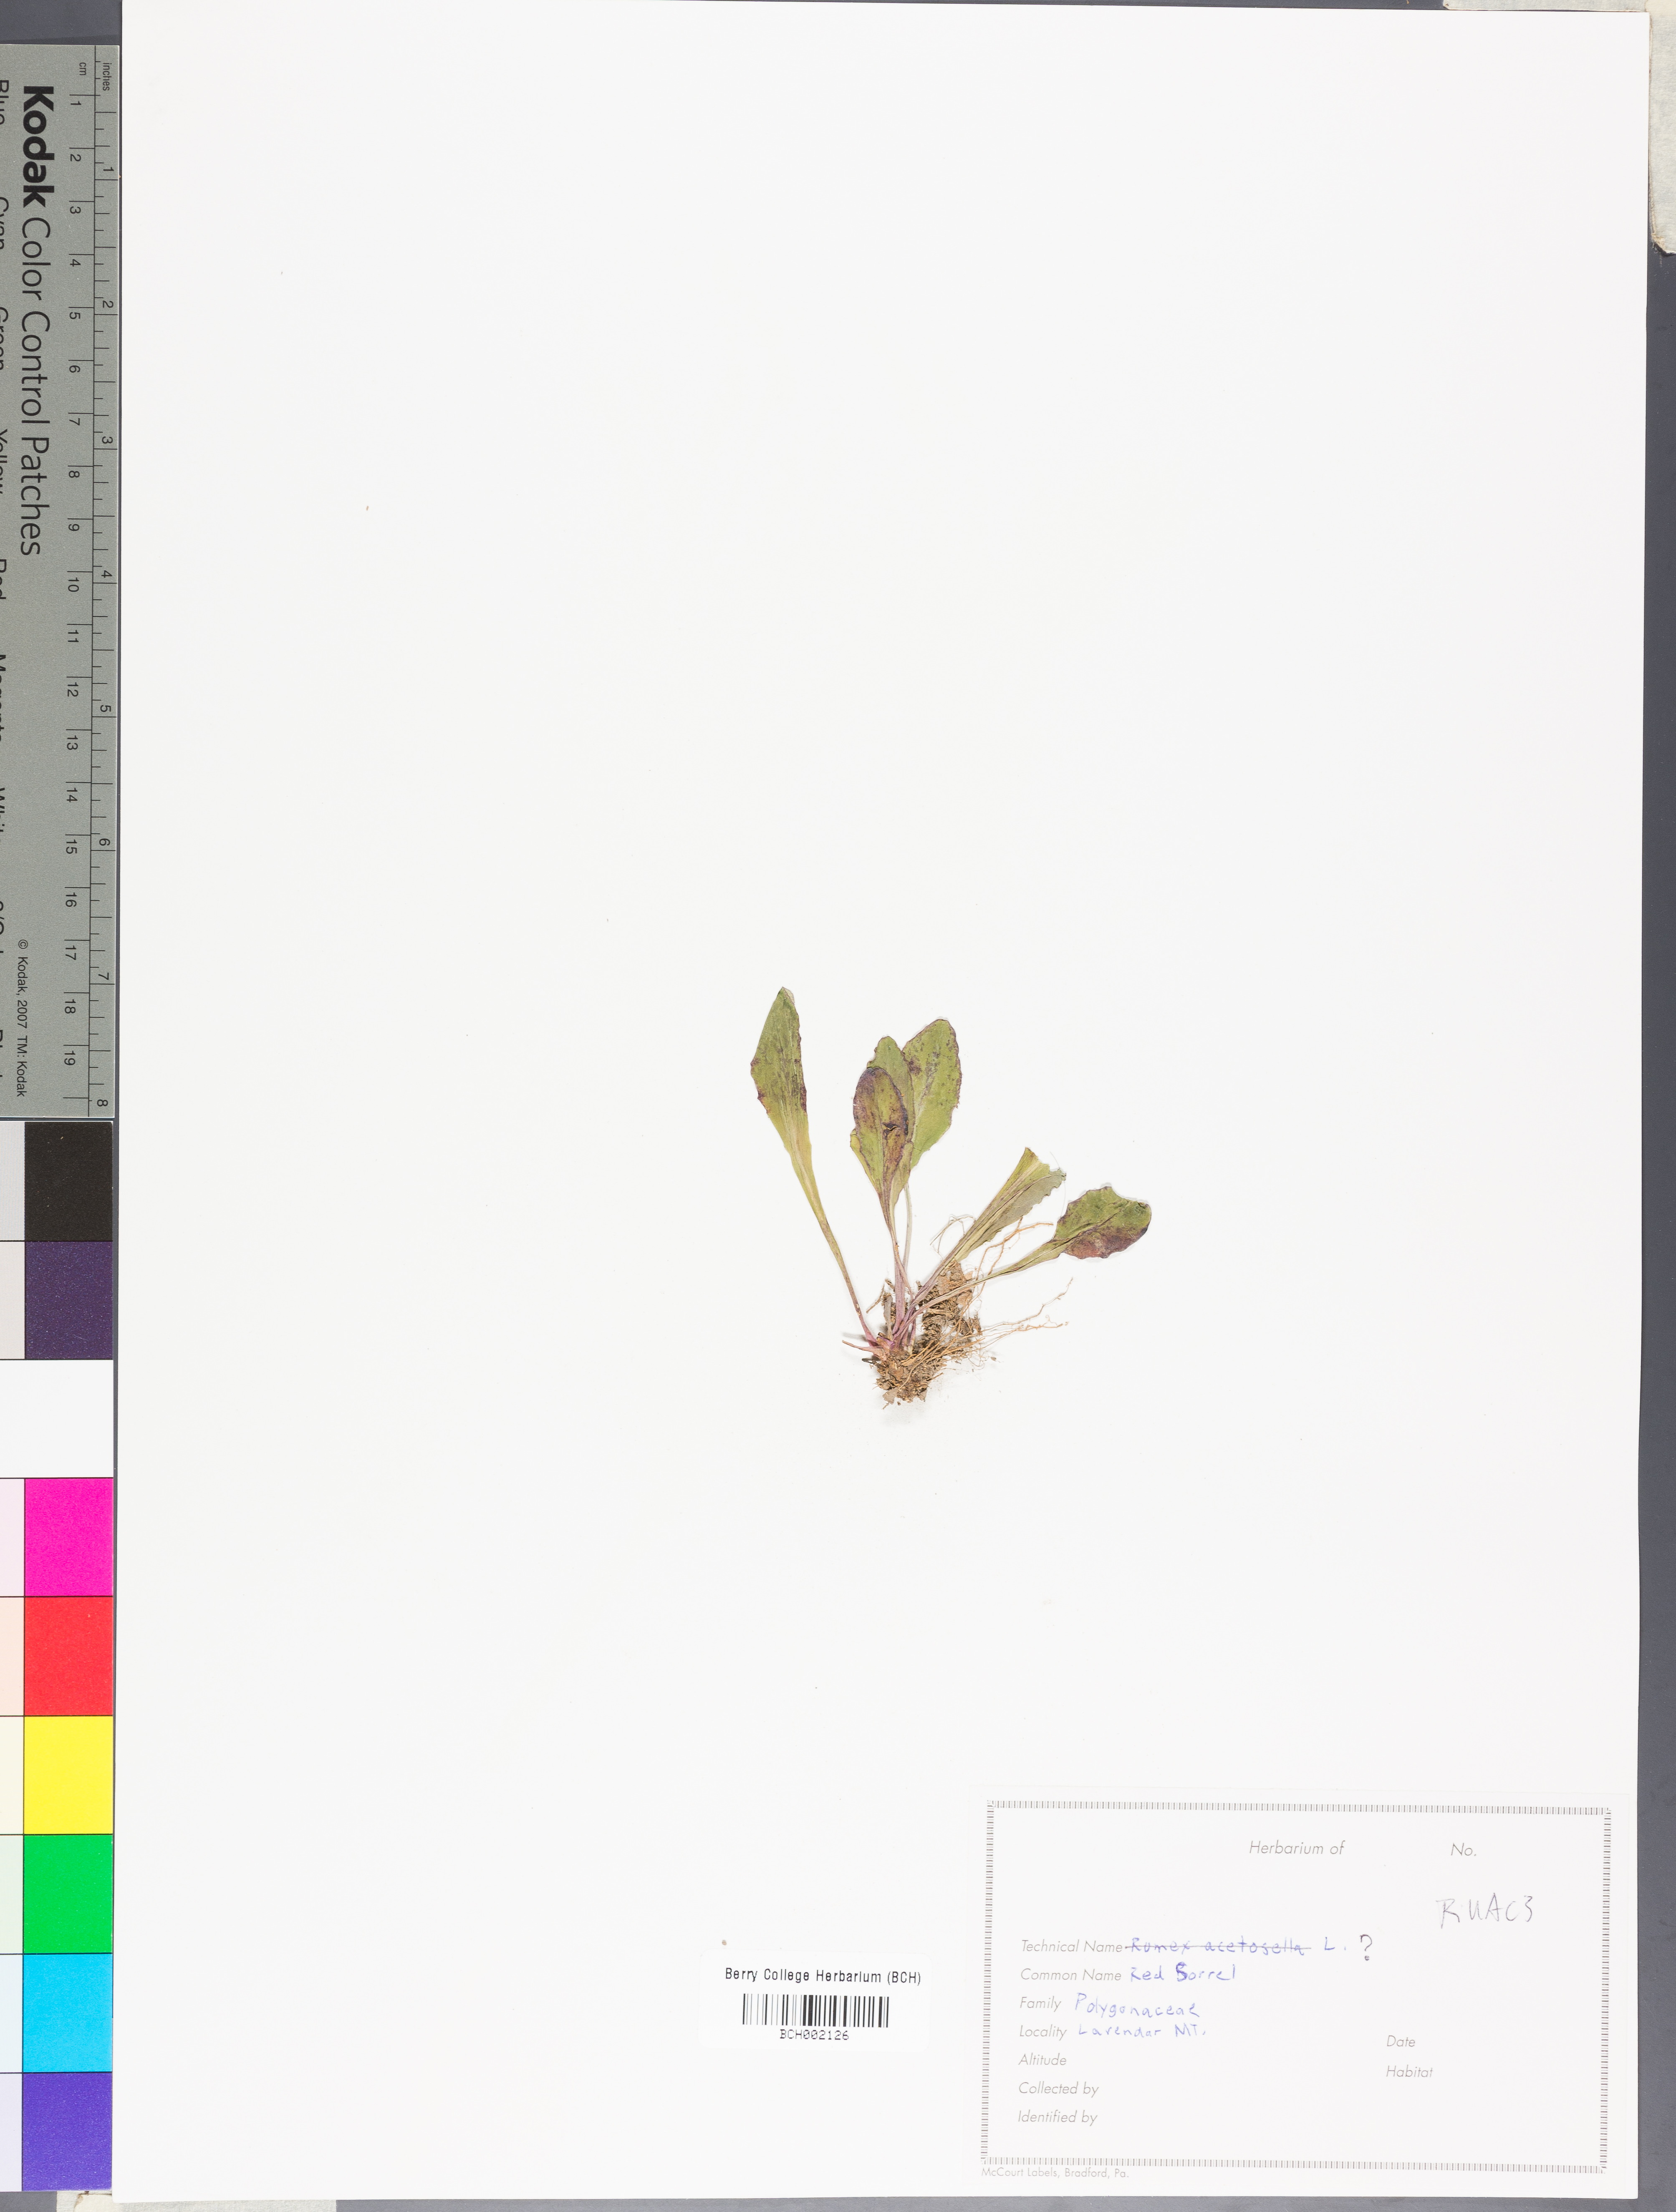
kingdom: Plantae
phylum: Tracheophyta
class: Magnoliopsida
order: Caryophyllales
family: Polygonaceae
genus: Rumex
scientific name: Rumex acetosella
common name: Common sheep sorrel
